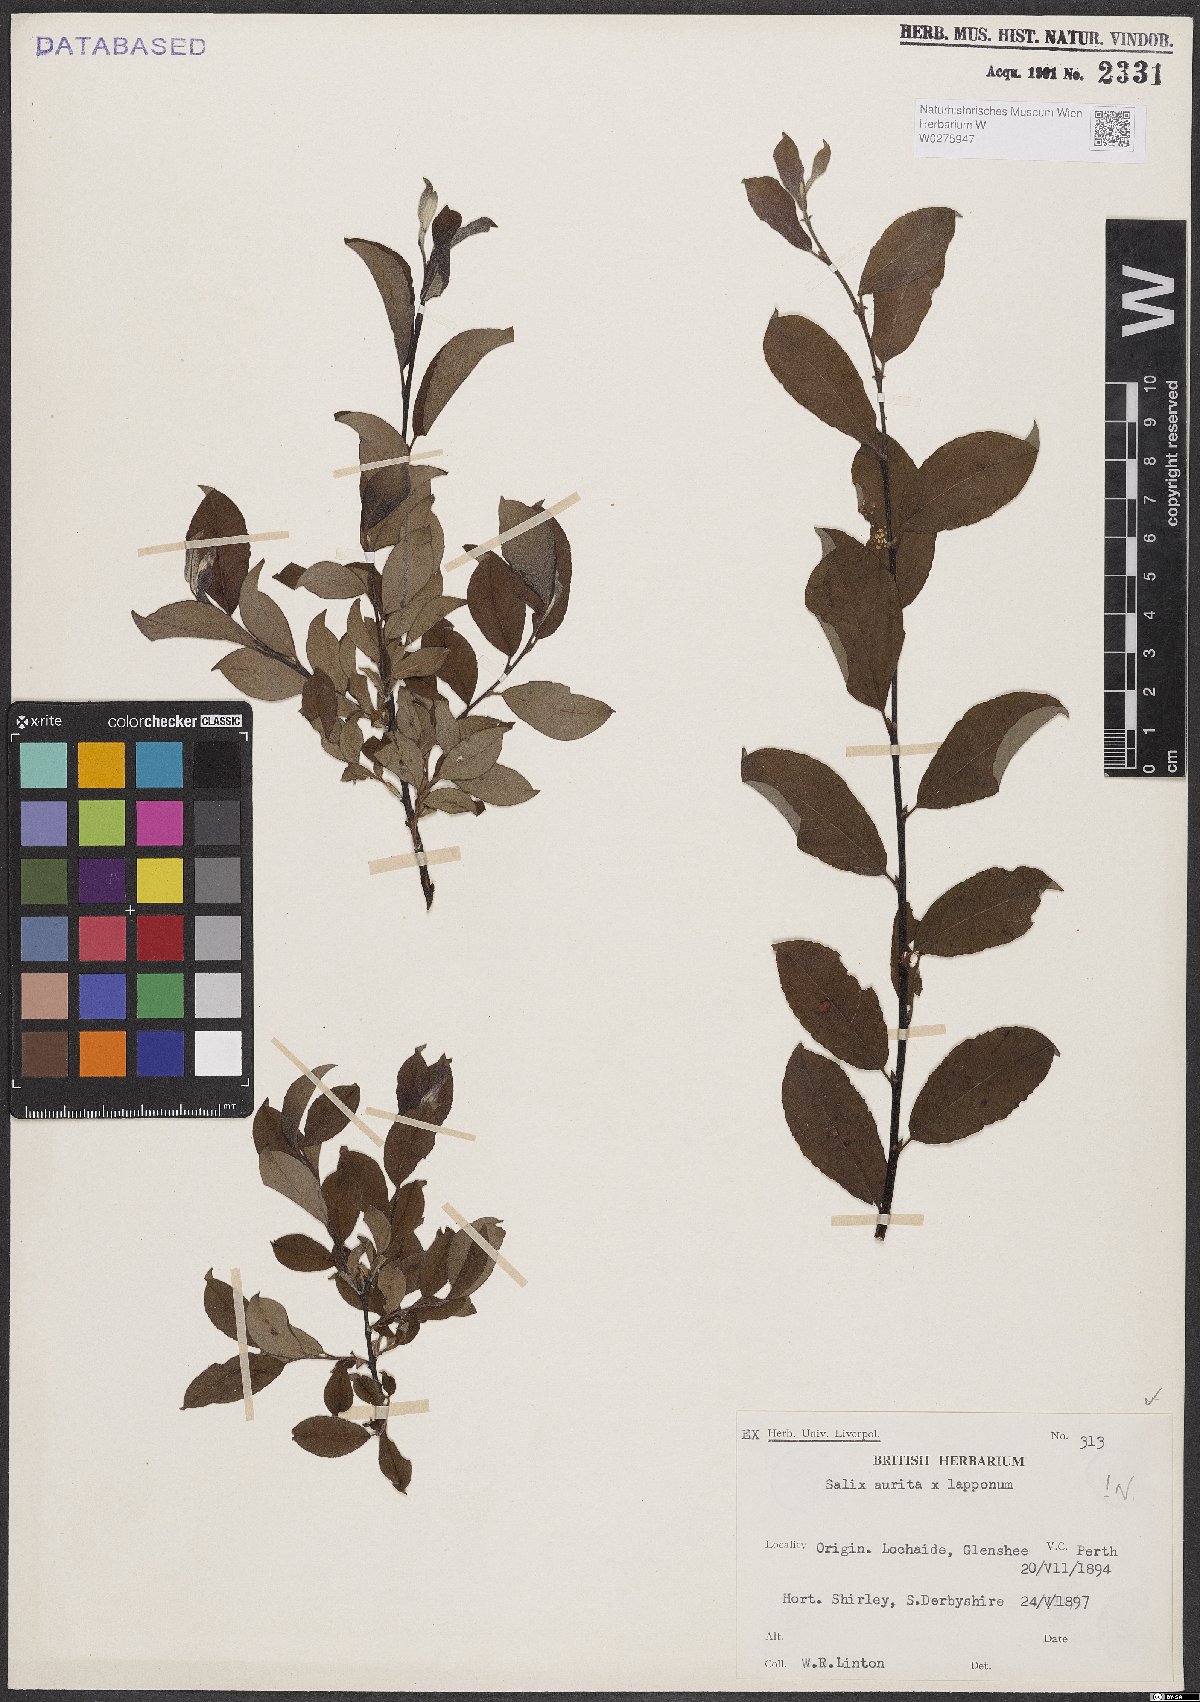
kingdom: Plantae
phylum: Tracheophyta
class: Magnoliopsida
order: Malpighiales
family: Salicaceae
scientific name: Salicaceae
